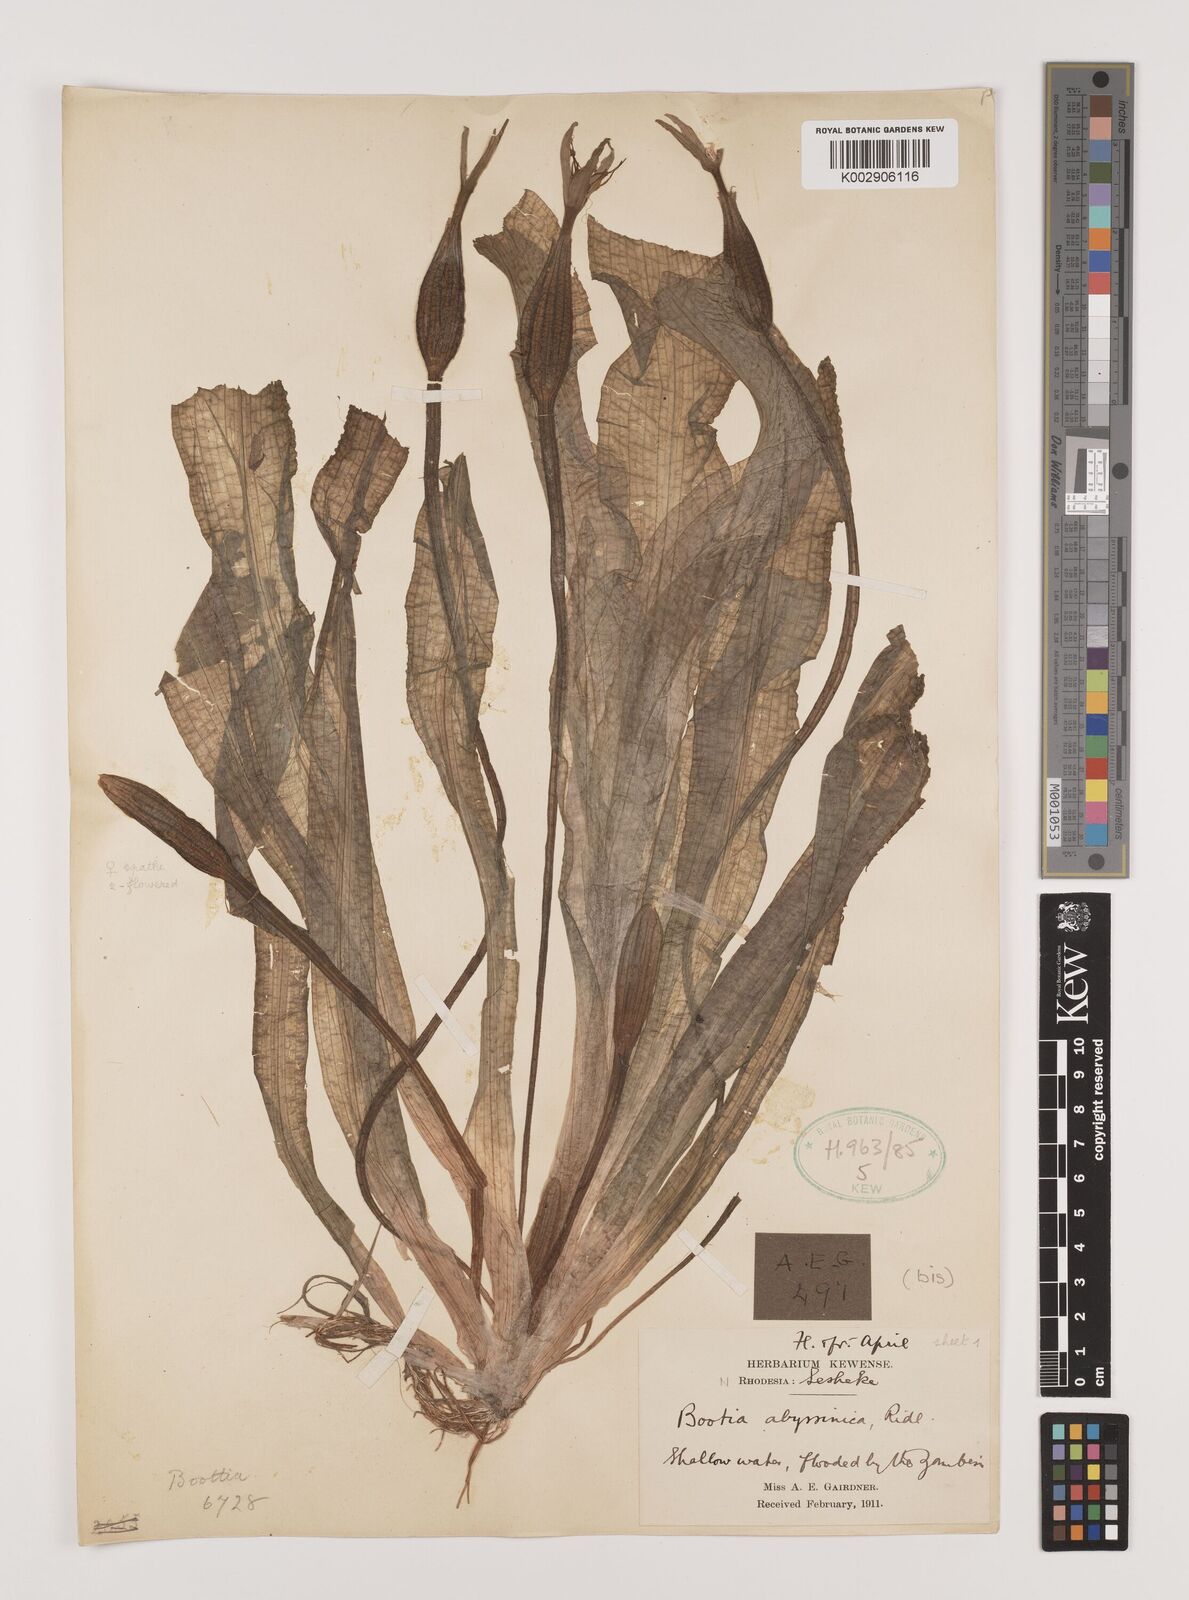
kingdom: Plantae
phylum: Tracheophyta
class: Liliopsida
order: Alismatales
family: Hydrocharitaceae
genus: Ottelia
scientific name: Ottelia ulvifolia
